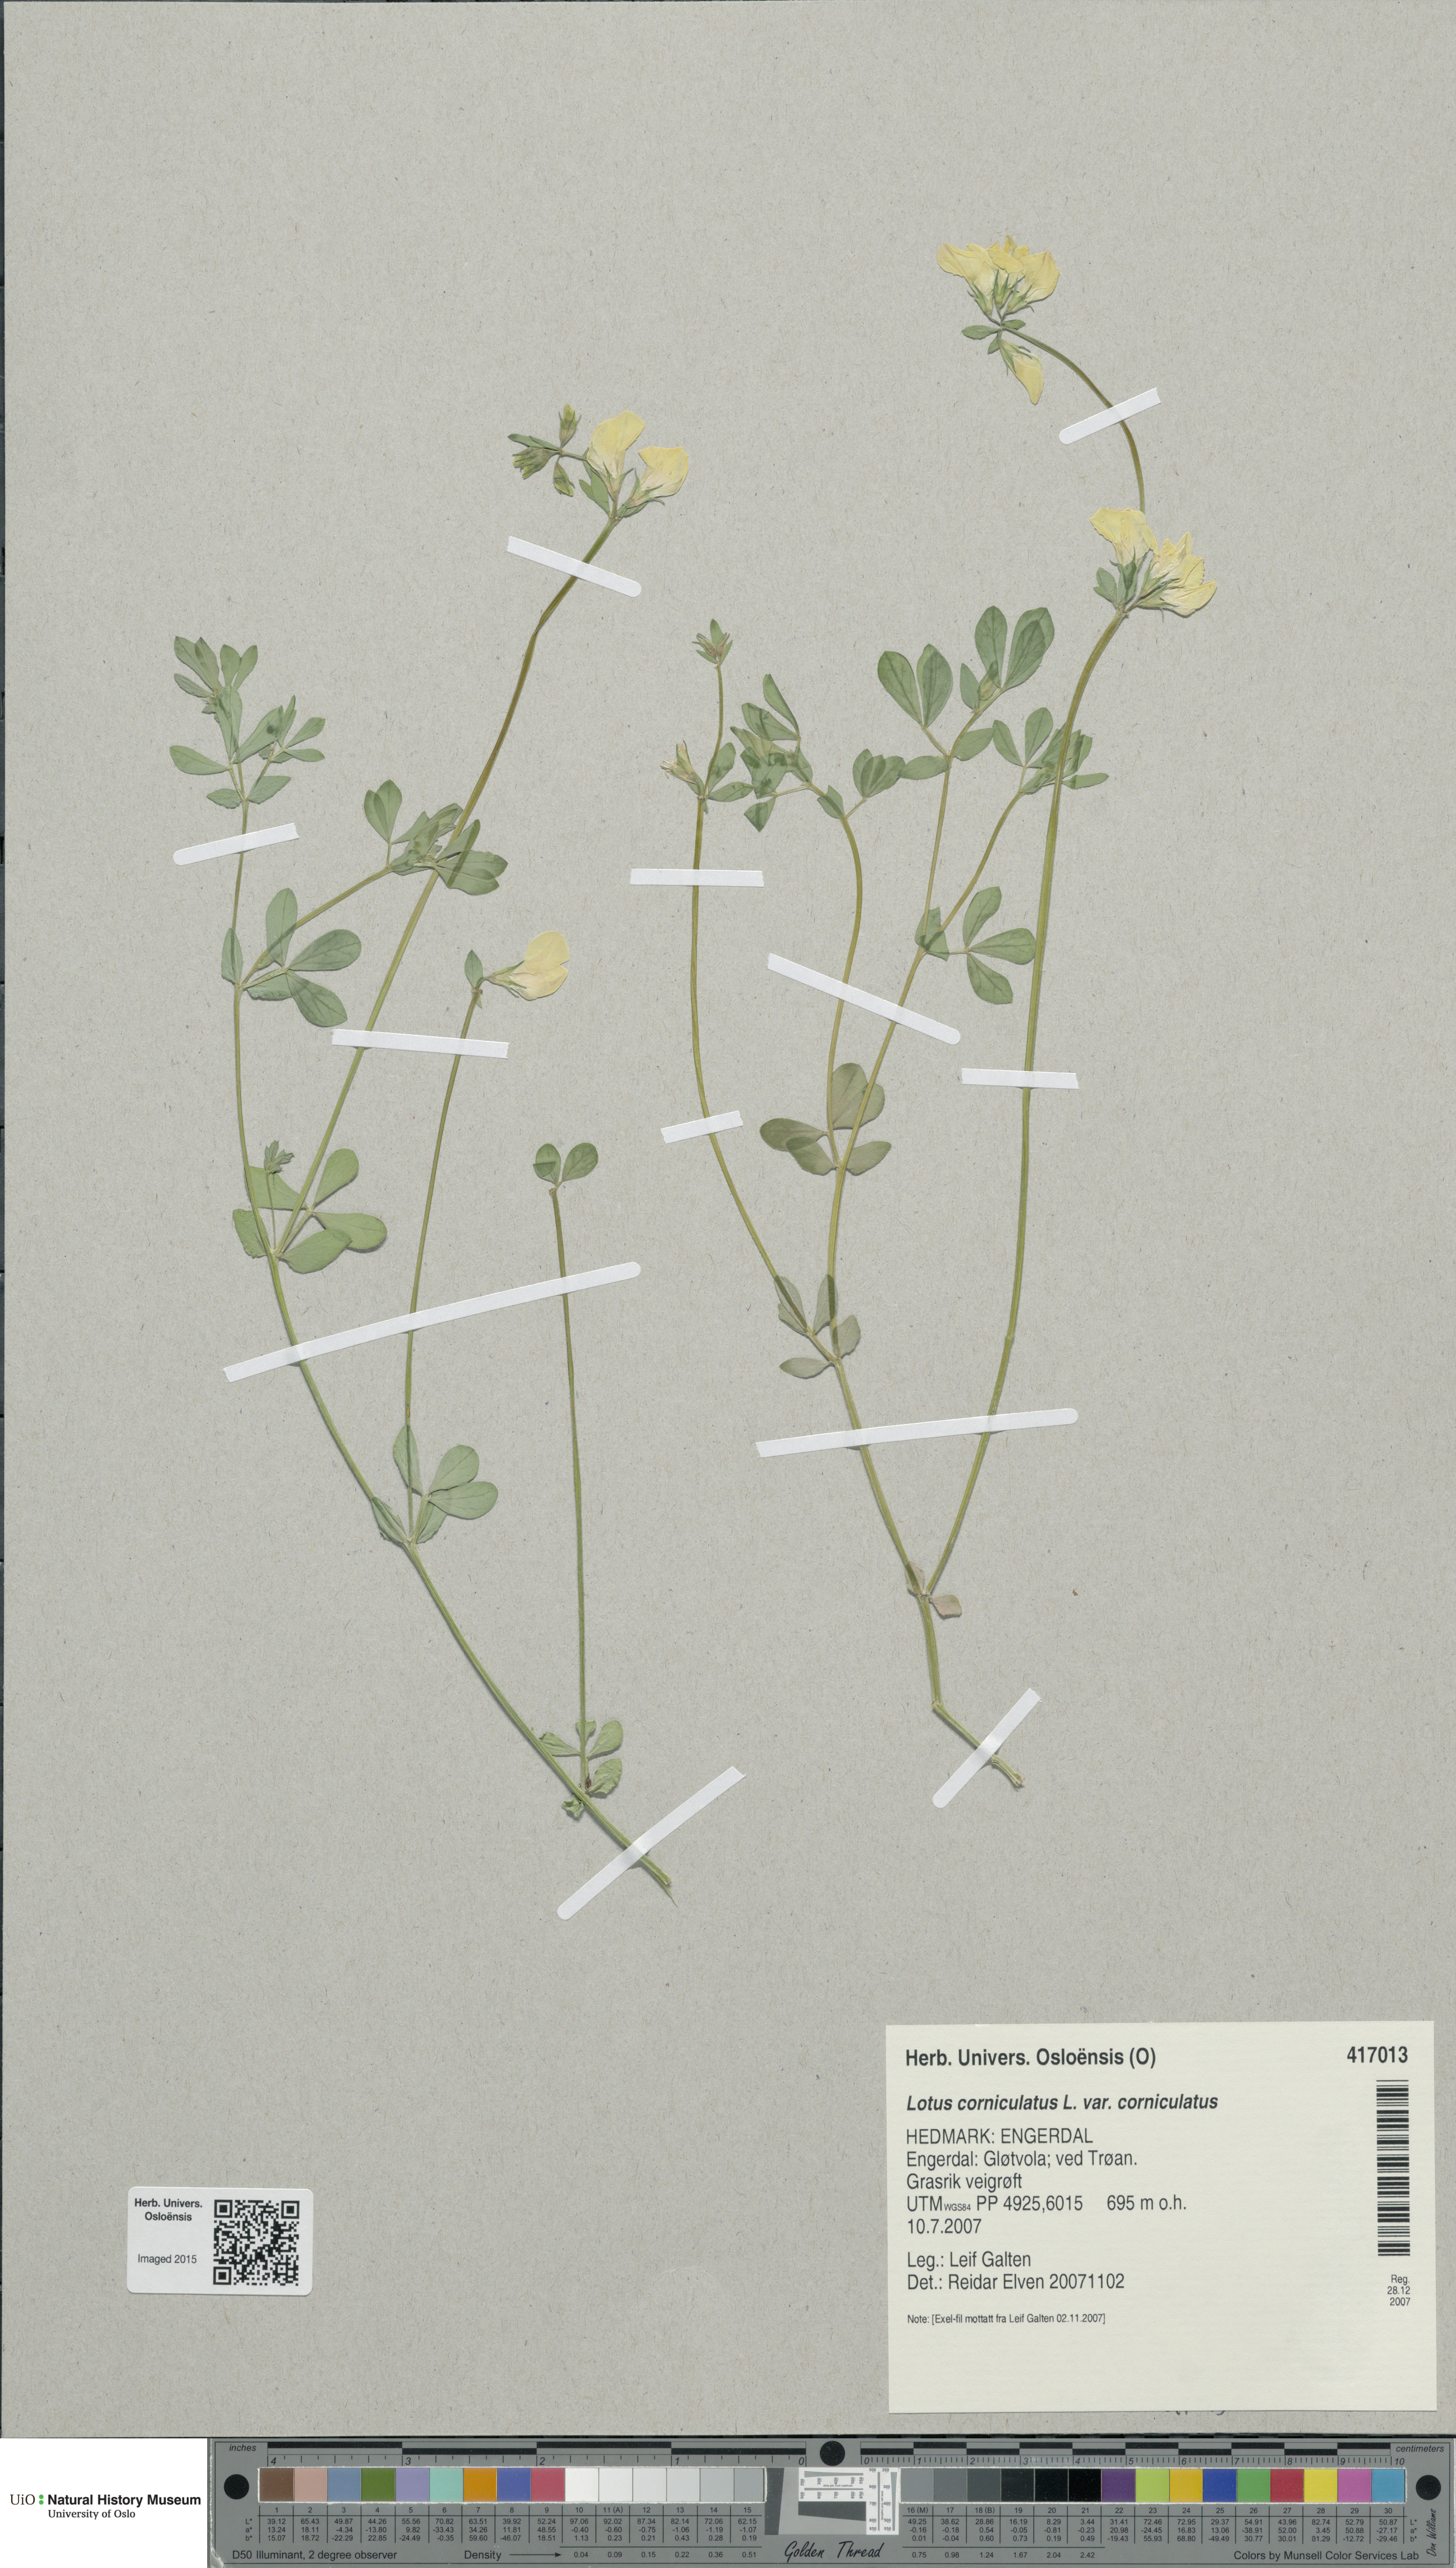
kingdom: Plantae
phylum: Tracheophyta
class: Magnoliopsida
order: Fabales
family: Fabaceae
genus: Lotus
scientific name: Lotus corniculatus
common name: Common bird's-foot-trefoil
